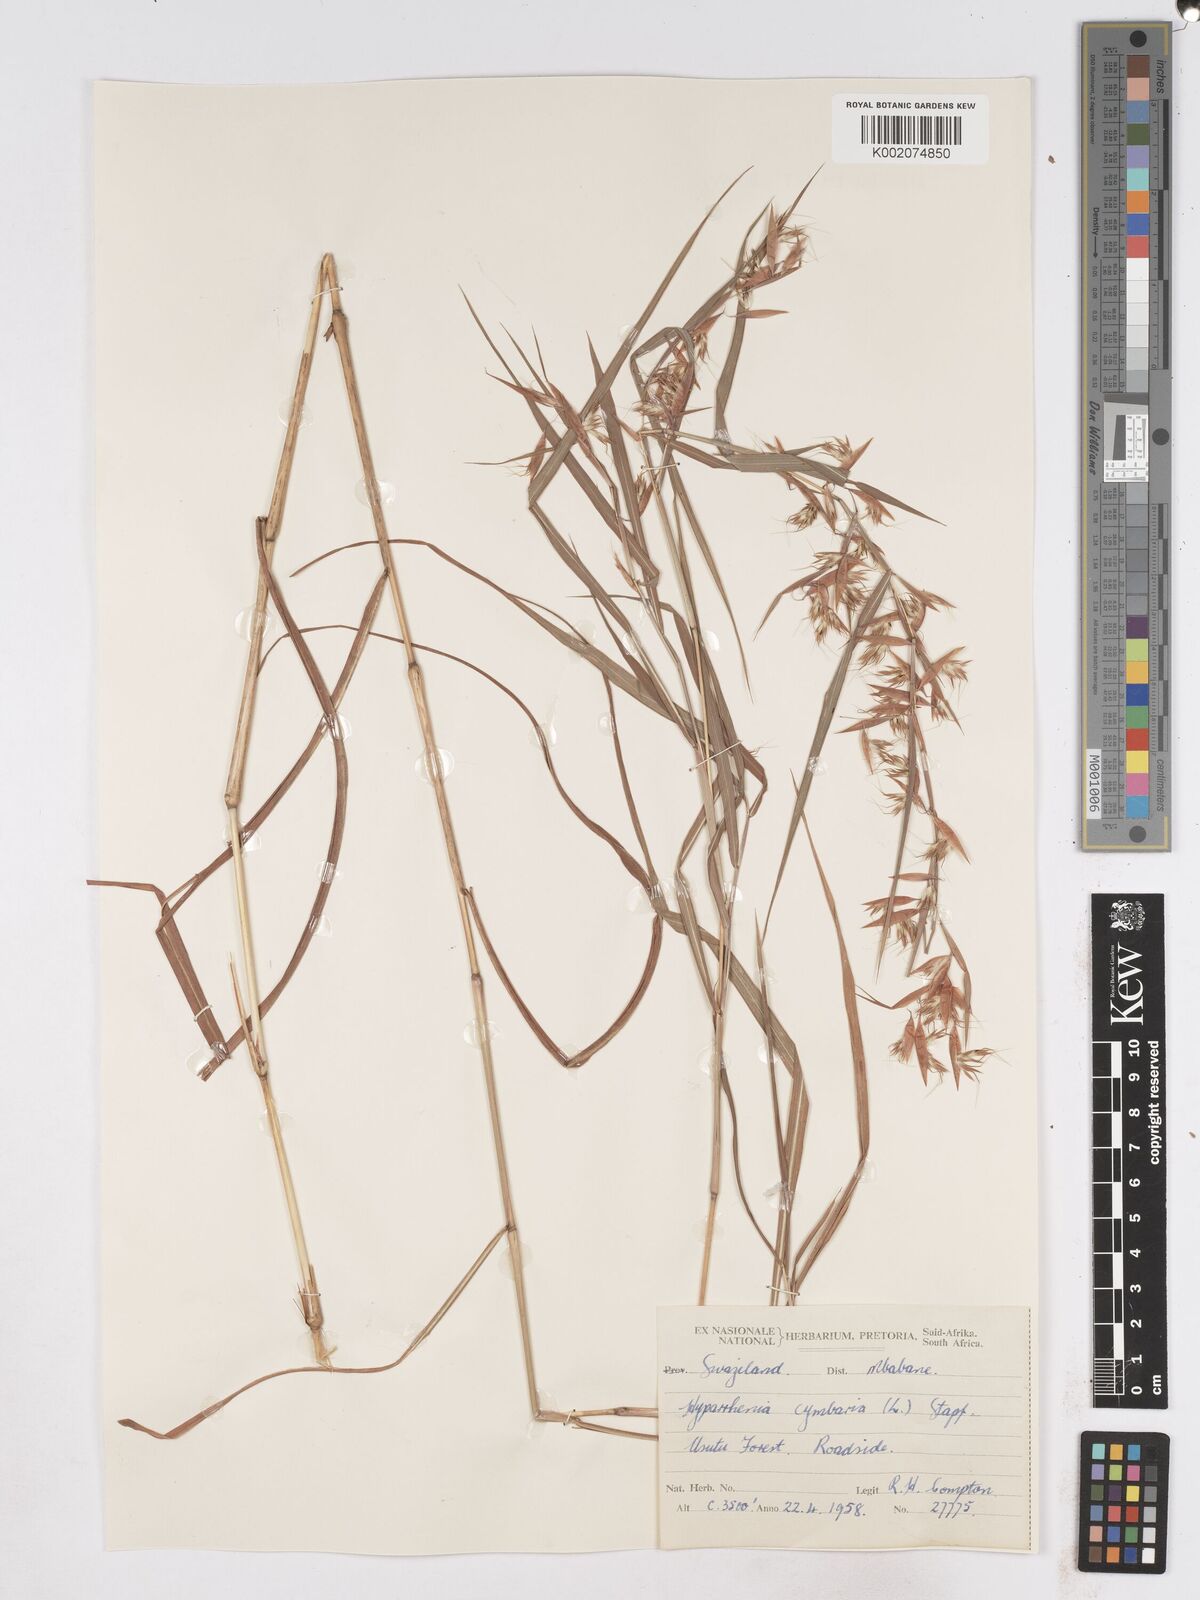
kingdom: Plantae
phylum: Tracheophyta
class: Liliopsida
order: Poales
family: Poaceae
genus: Hyparrhenia
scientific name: Hyparrhenia cymbaria
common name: Boat thatching grass
